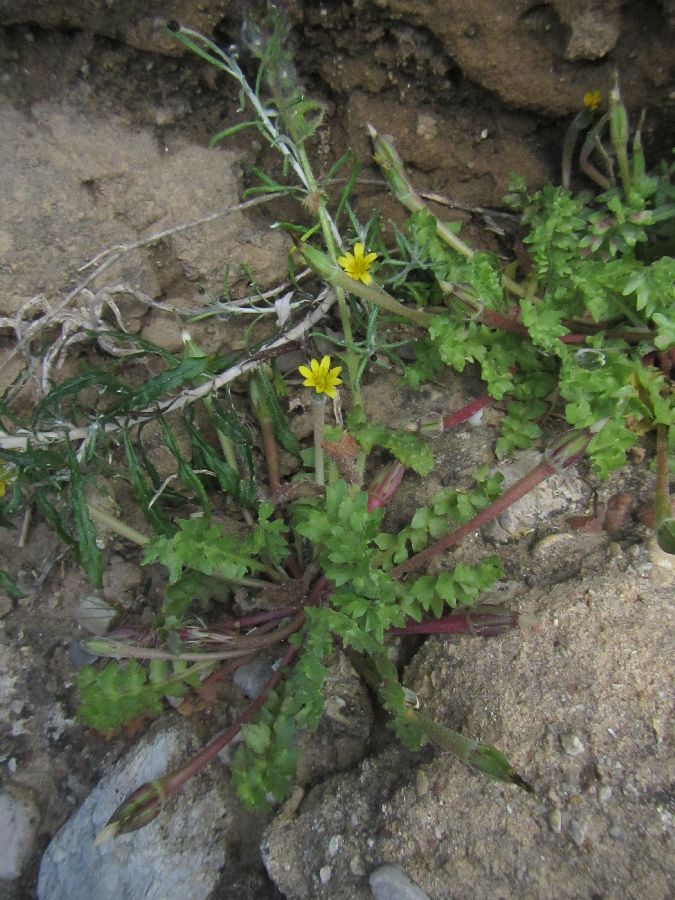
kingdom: Plantae
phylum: Tracheophyta
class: Magnoliopsida
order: Asterales
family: Asteraceae
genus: Hyoseris
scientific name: Hyoseris scabra
